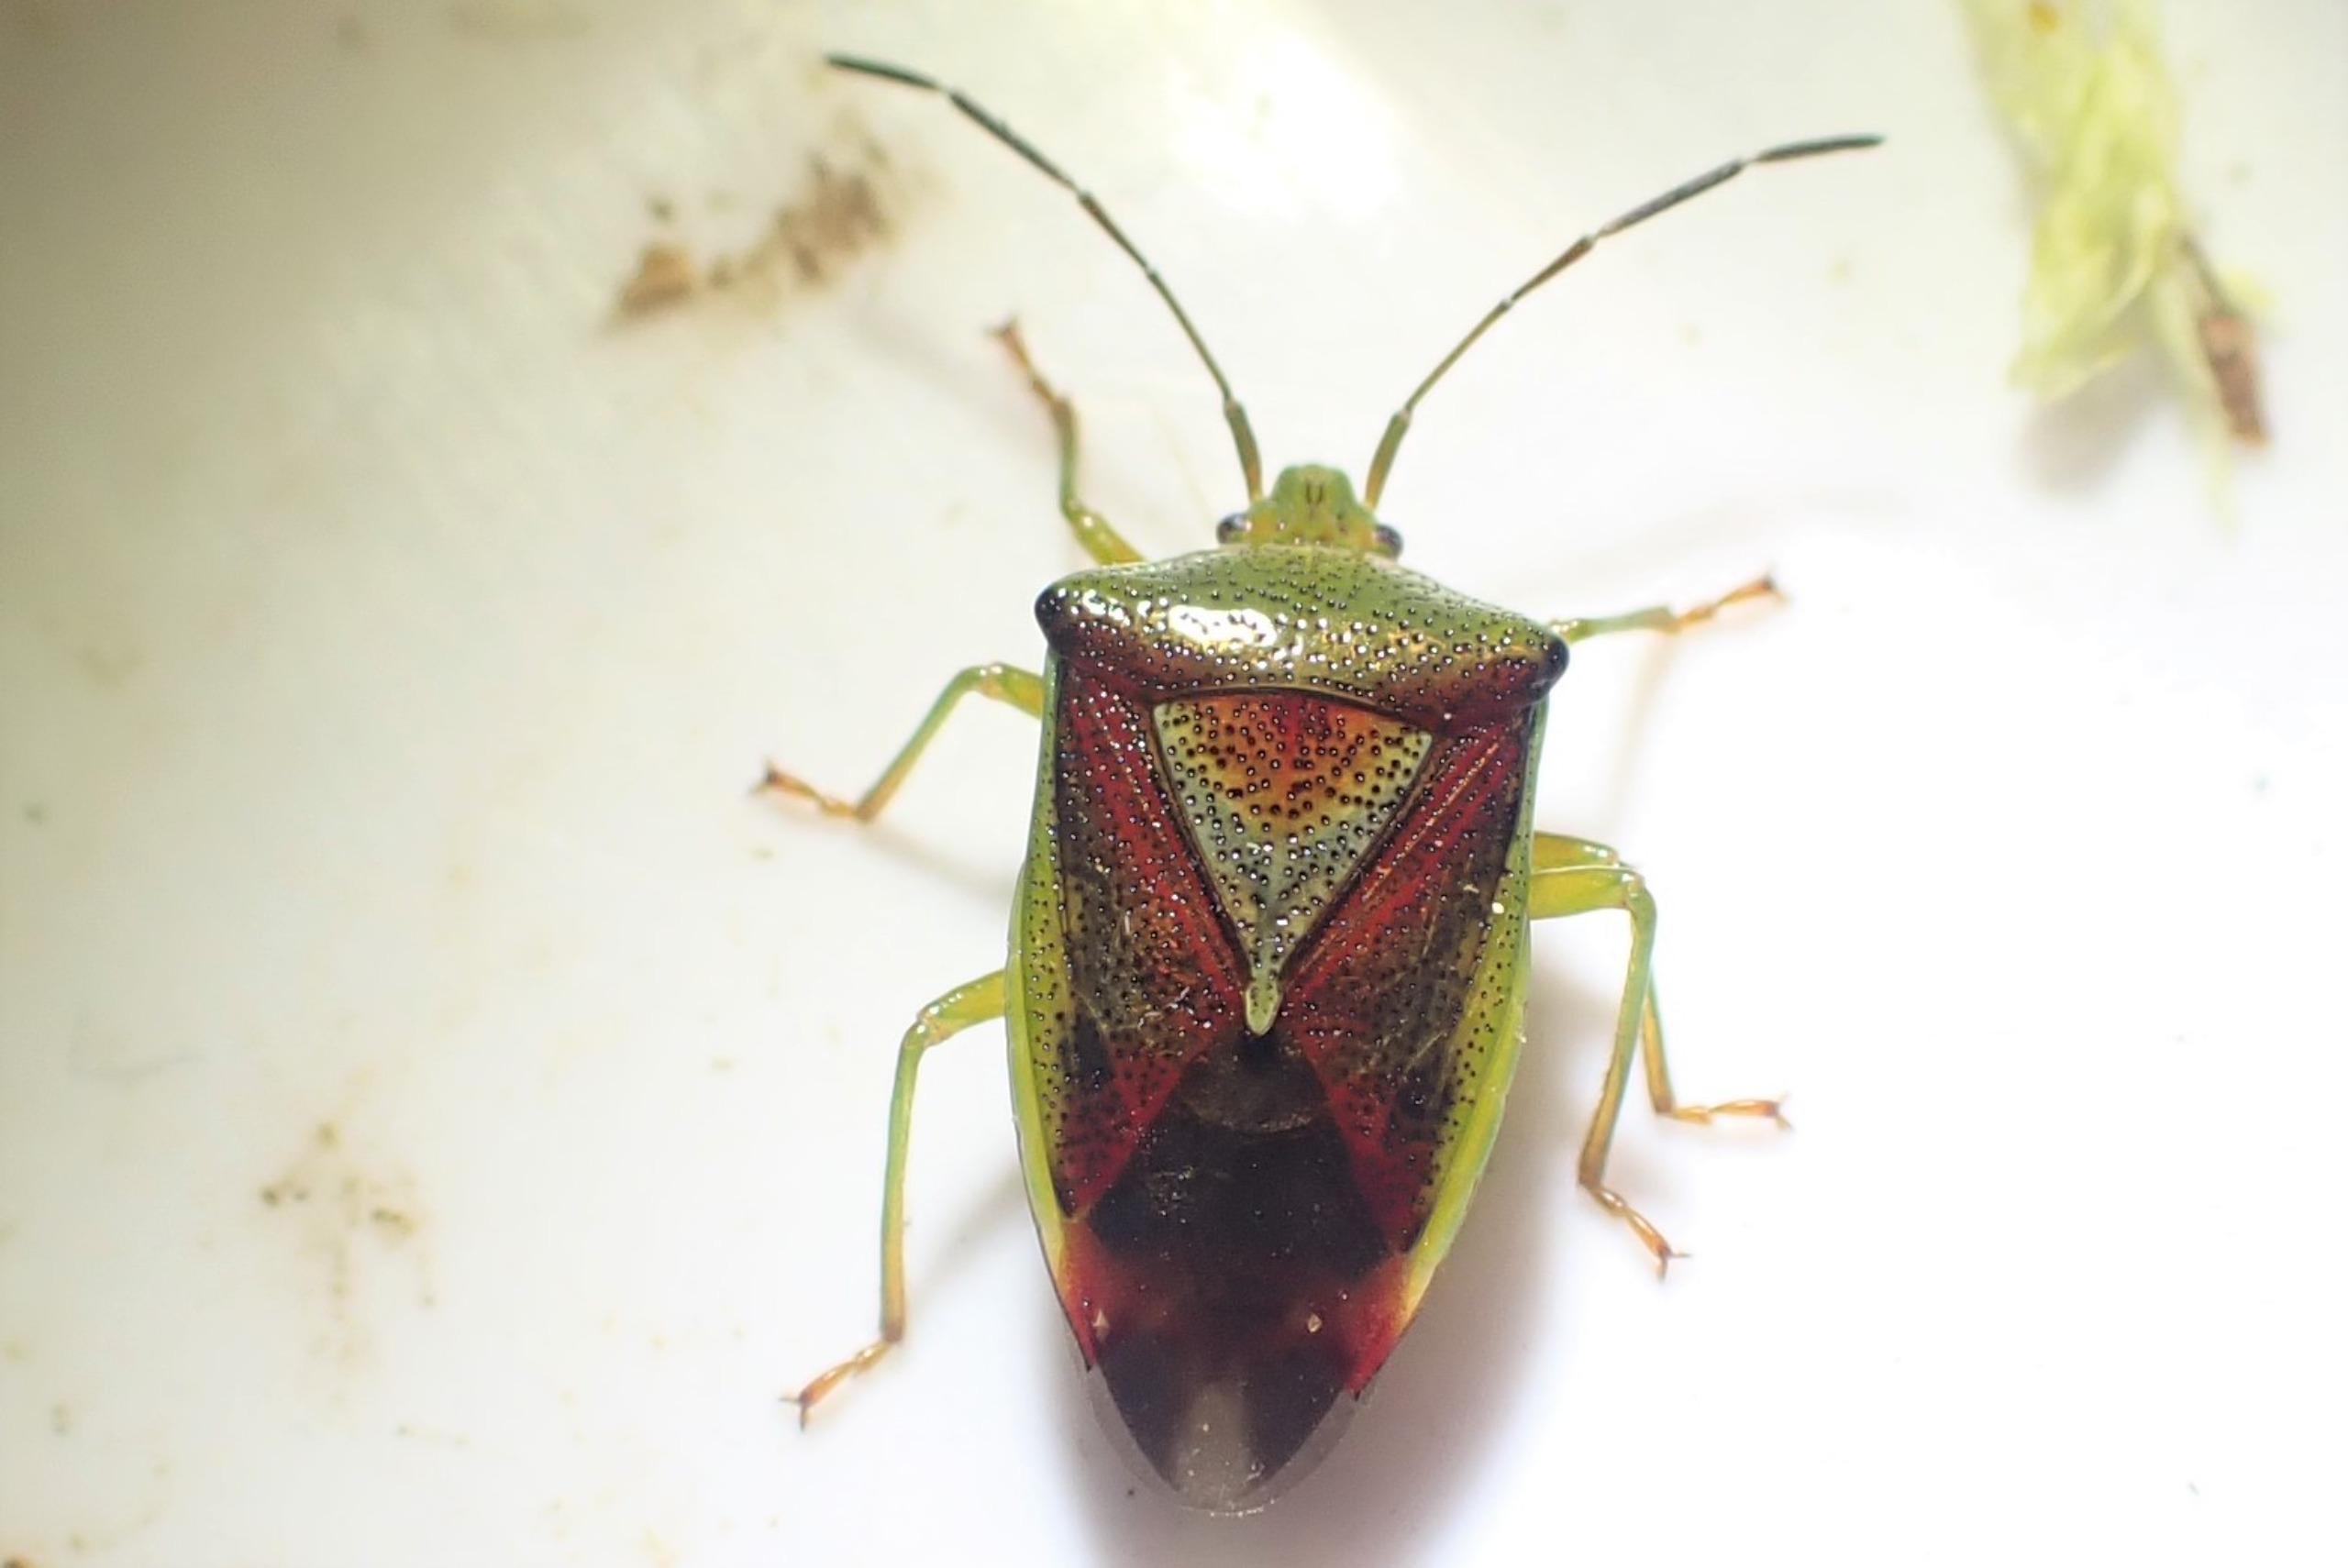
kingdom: Animalia
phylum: Arthropoda
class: Insecta
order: Hemiptera
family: Acanthosomatidae
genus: Elasmostethus
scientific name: Elasmostethus interstinctus
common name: Almindelig løvtæge
